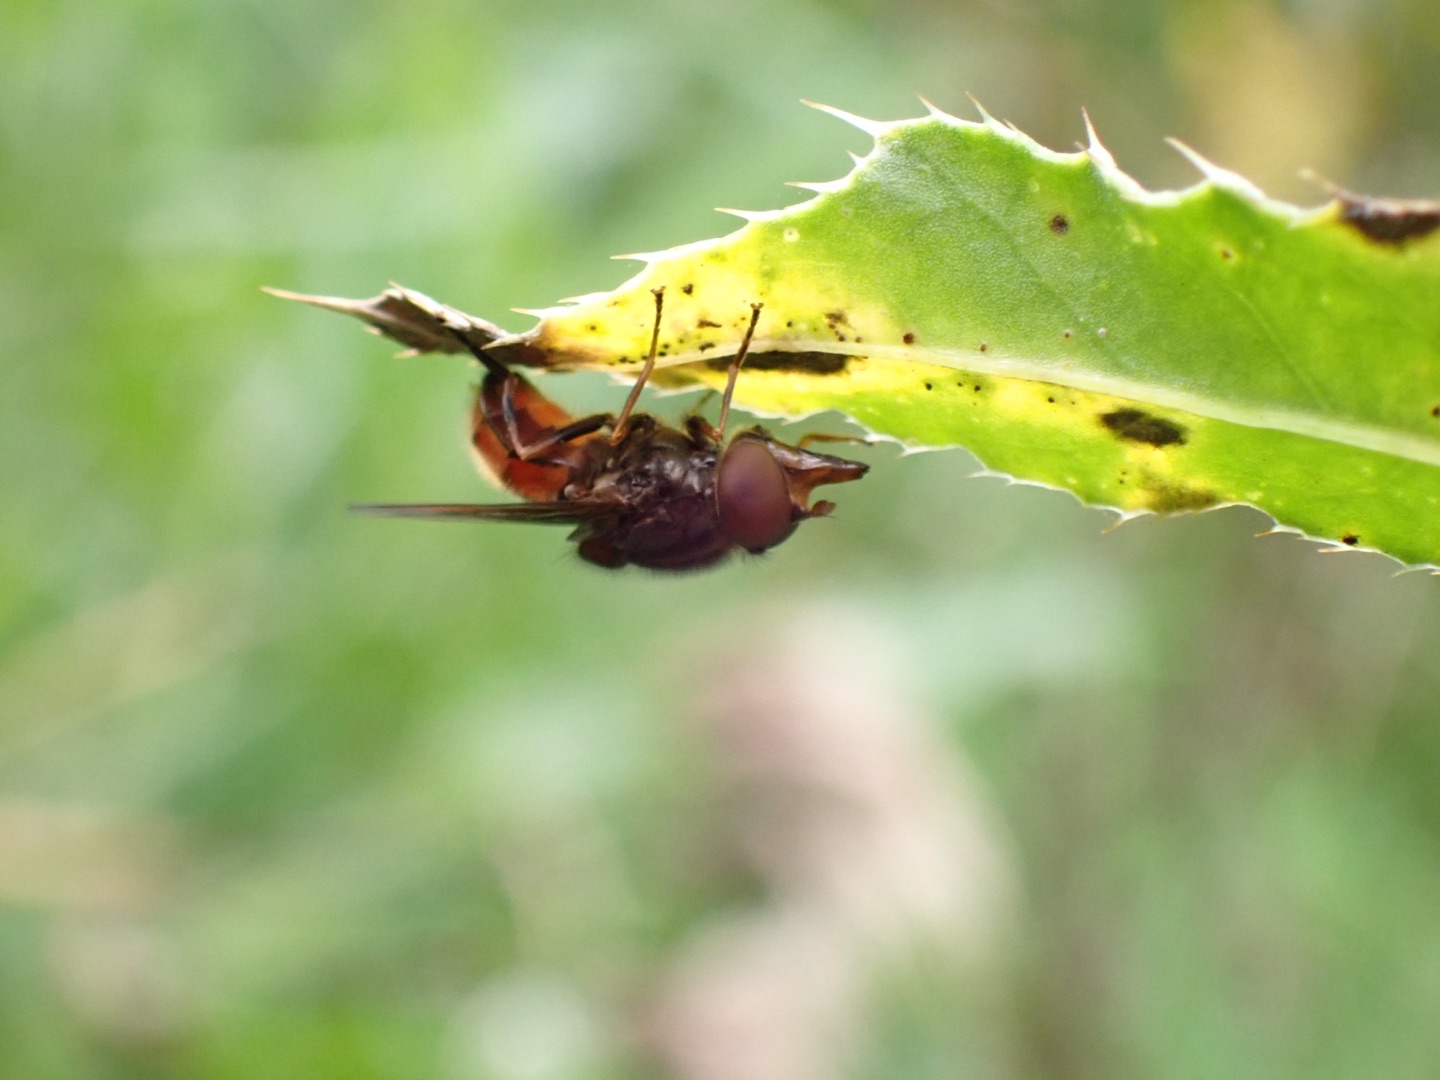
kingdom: Animalia
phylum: Arthropoda
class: Insecta
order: Diptera
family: Syrphidae
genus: Rhingia
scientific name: Rhingia campestris
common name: Mark-snabelsvirreflue
